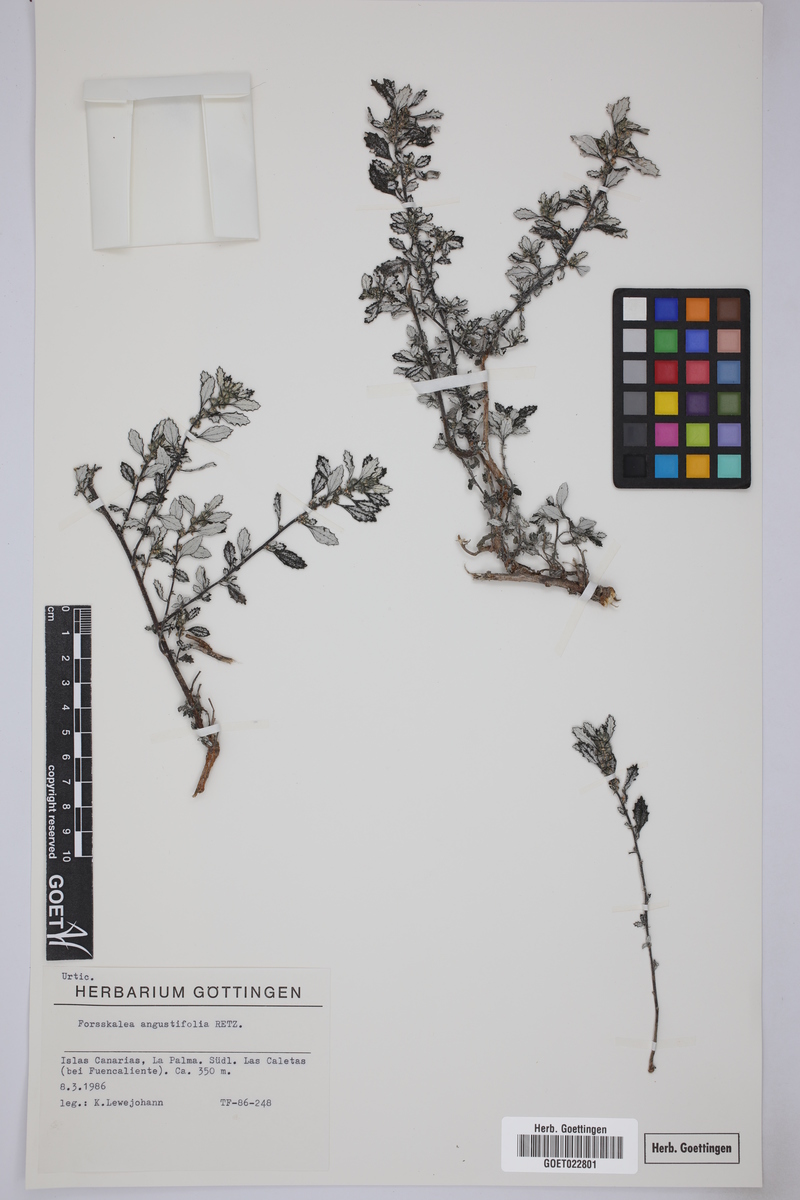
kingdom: Plantae
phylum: Tracheophyta
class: Magnoliopsida
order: Rosales
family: Urticaceae
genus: Forsskaolea
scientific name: Forsskaolea angustifolia
